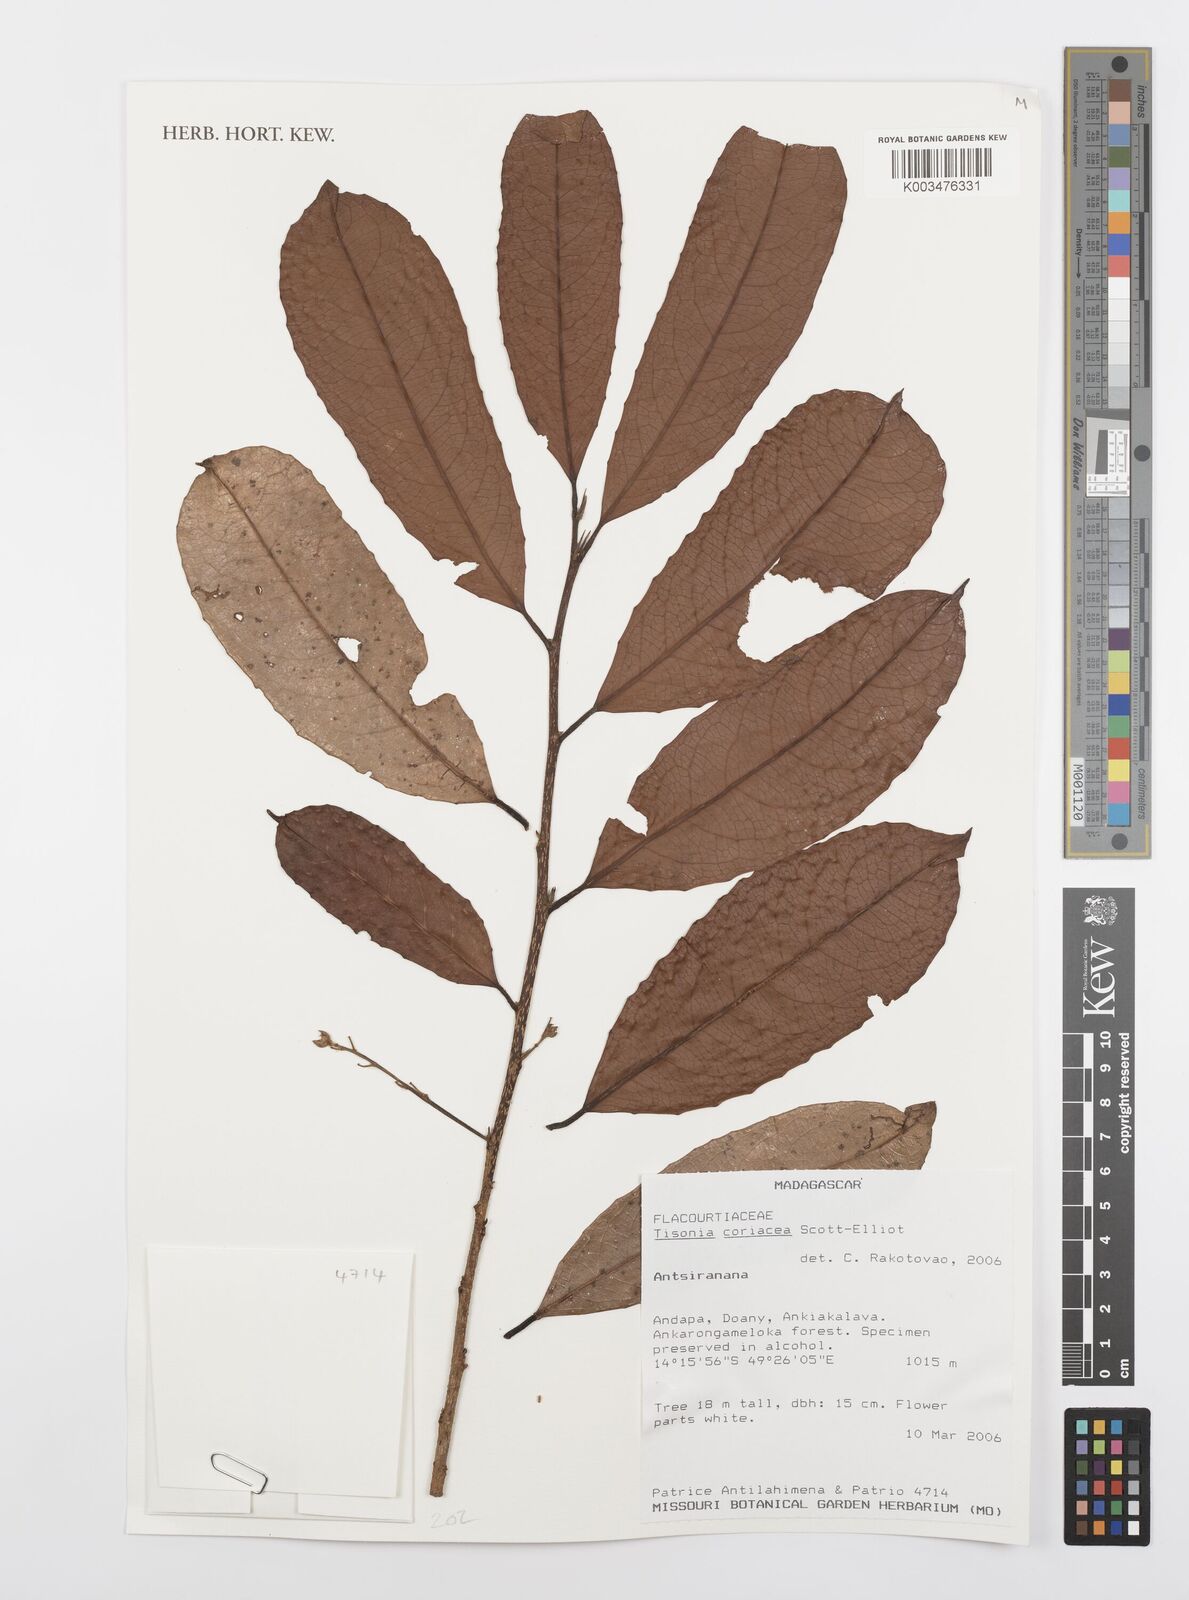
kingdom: Plantae
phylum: Tracheophyta
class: Magnoliopsida
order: Malpighiales
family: Salicaceae
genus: Tisonia
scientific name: Tisonia coriacea
